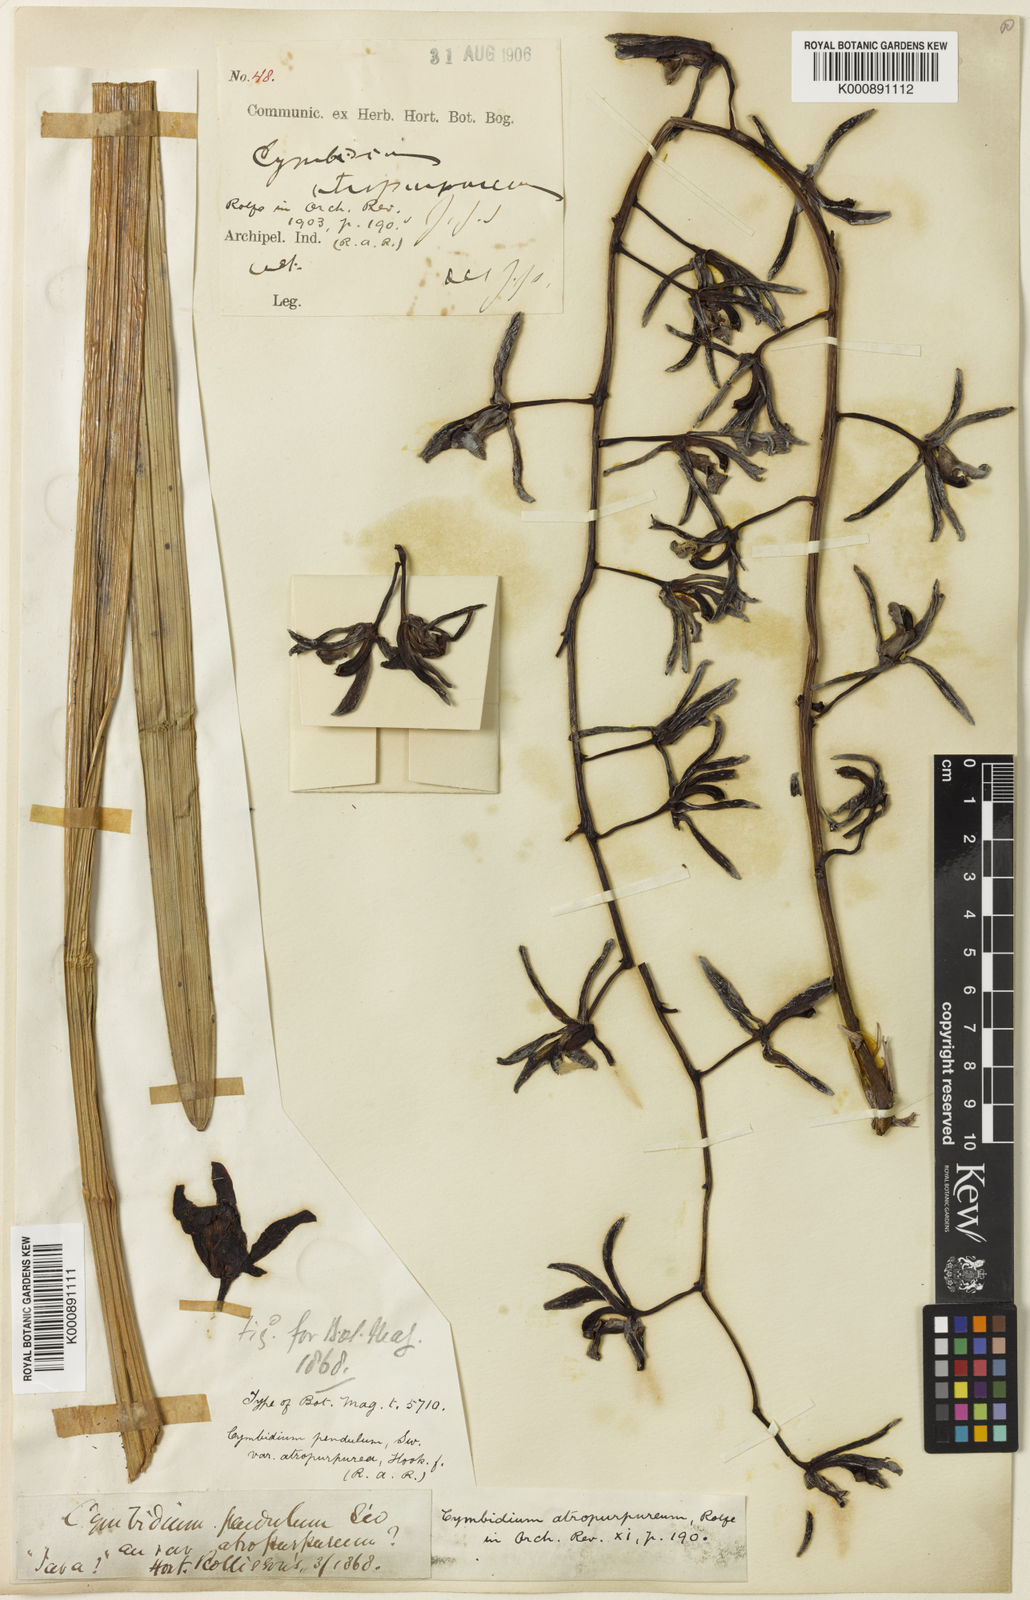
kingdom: Plantae
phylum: Tracheophyta
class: Liliopsida
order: Asparagales
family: Orchidaceae
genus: Cymbidium
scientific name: Cymbidium atropurpureum
